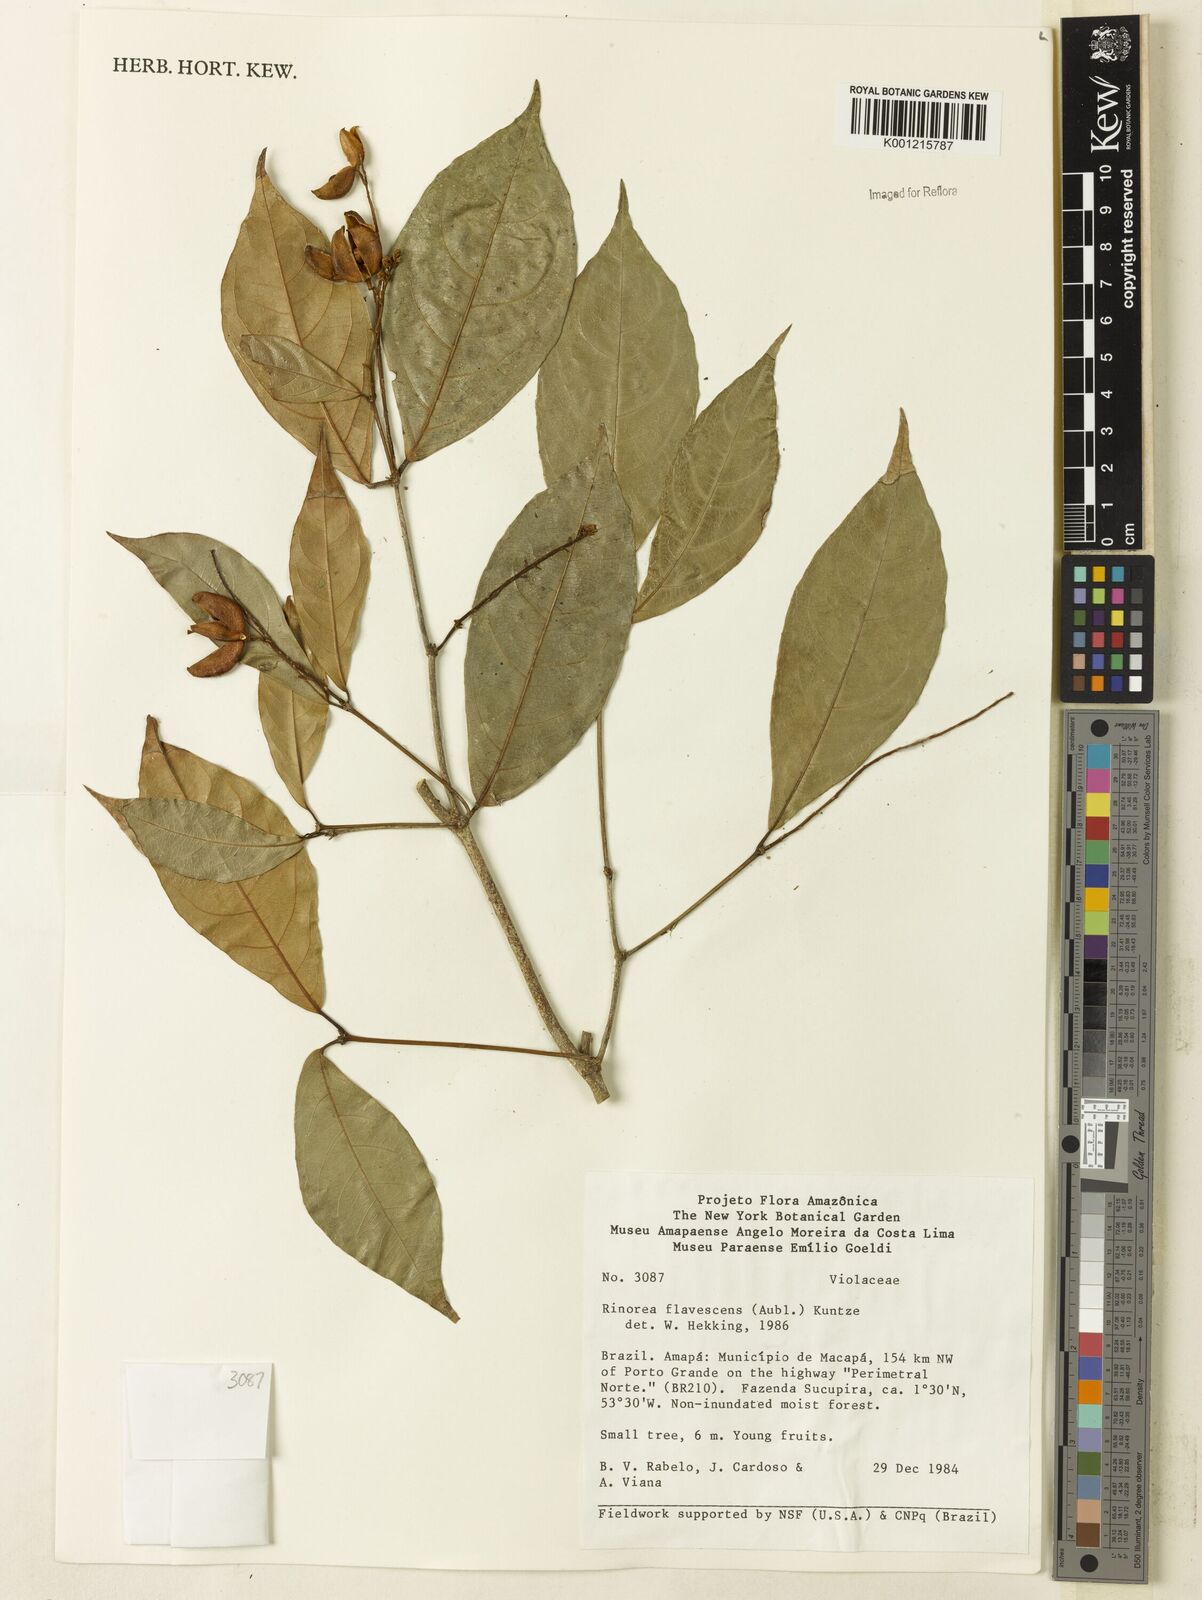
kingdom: Plantae
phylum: Tracheophyta
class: Magnoliopsida
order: Malpighiales
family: Violaceae
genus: Rinorea
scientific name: Rinorea flavescens
